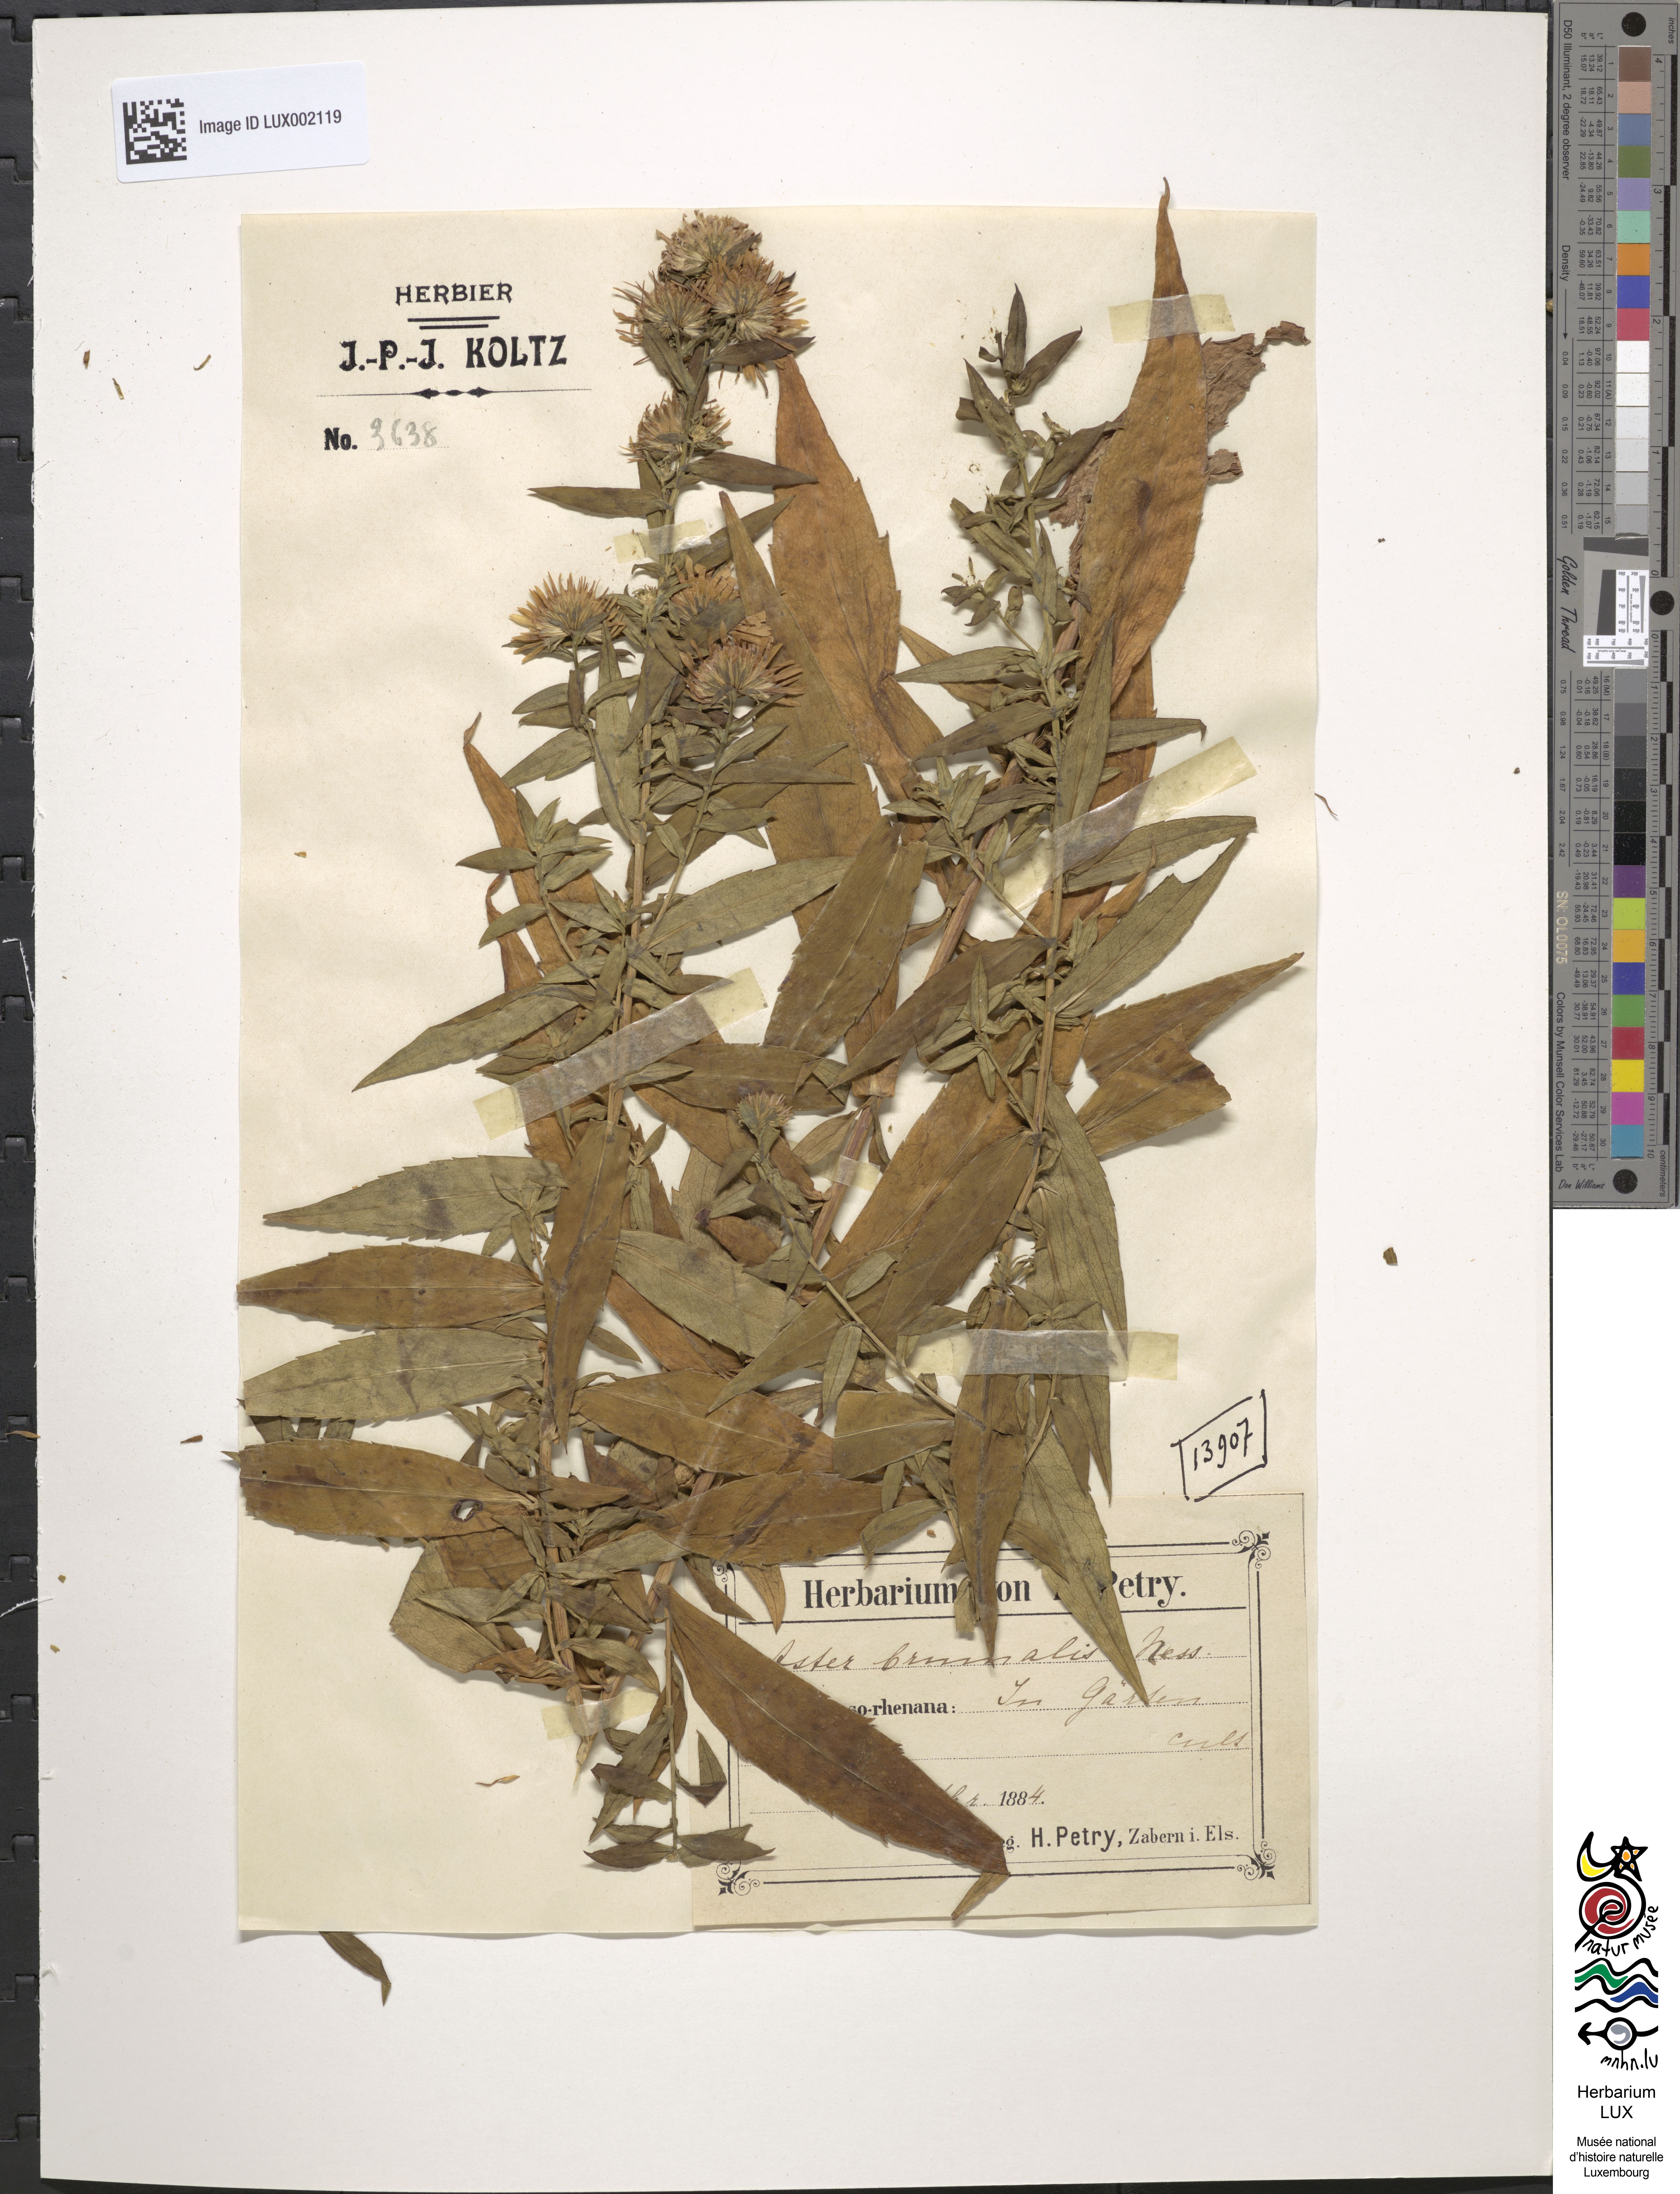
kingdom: Plantae
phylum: Tracheophyta
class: Magnoliopsida
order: Asterales
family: Asteraceae
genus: Symphyotrichum
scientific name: Symphyotrichum novi-belgii
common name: Michaelmas daisy
